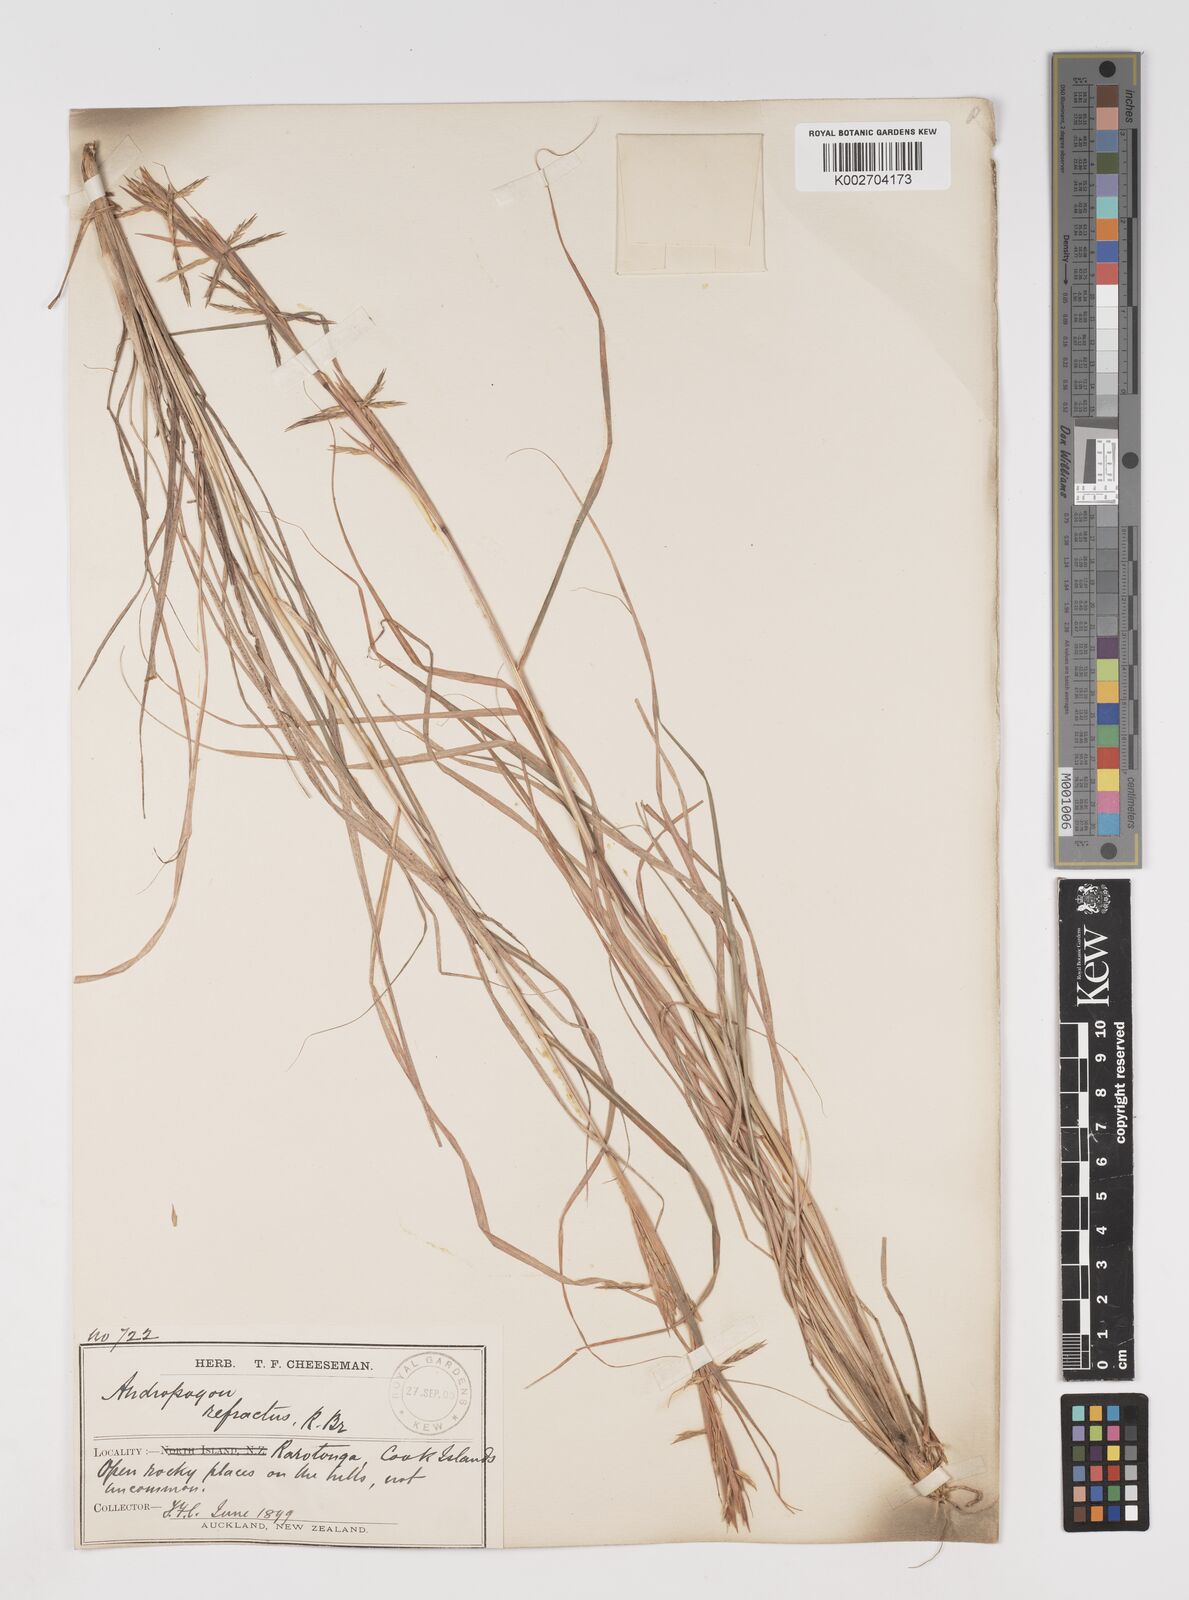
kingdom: Plantae
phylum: Tracheophyta
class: Liliopsida
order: Poales
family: Poaceae
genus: Cymbopogon
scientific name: Cymbopogon refractus
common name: Barbwire grass
